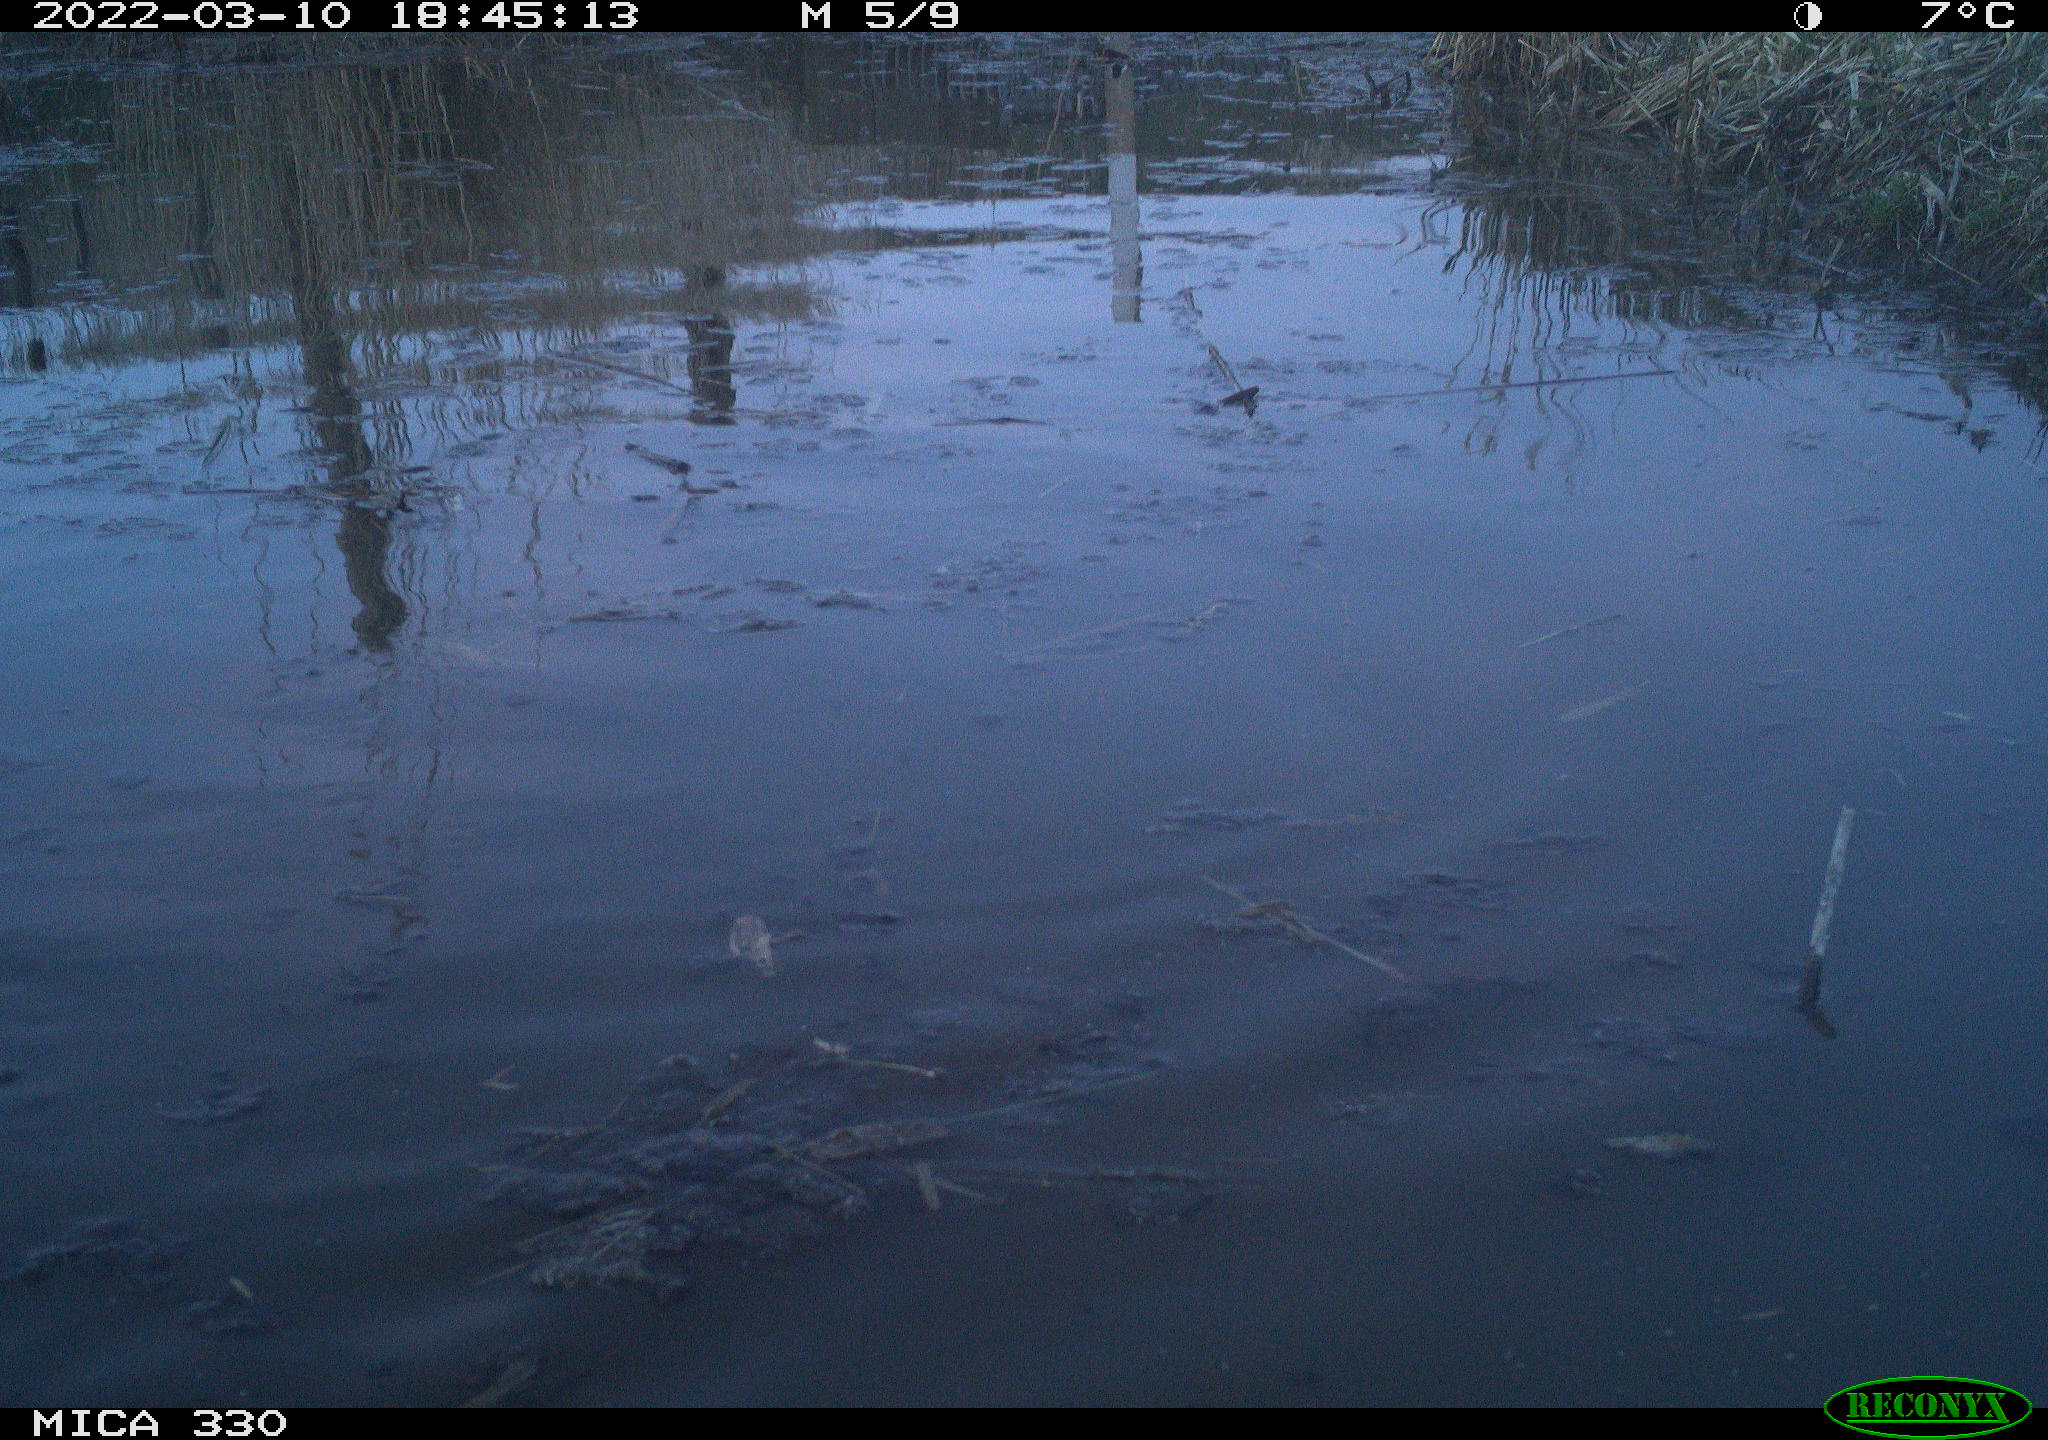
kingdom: Animalia
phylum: Chordata
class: Aves
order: Anseriformes
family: Anatidae
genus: Anas
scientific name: Anas platyrhynchos
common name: Mallard
